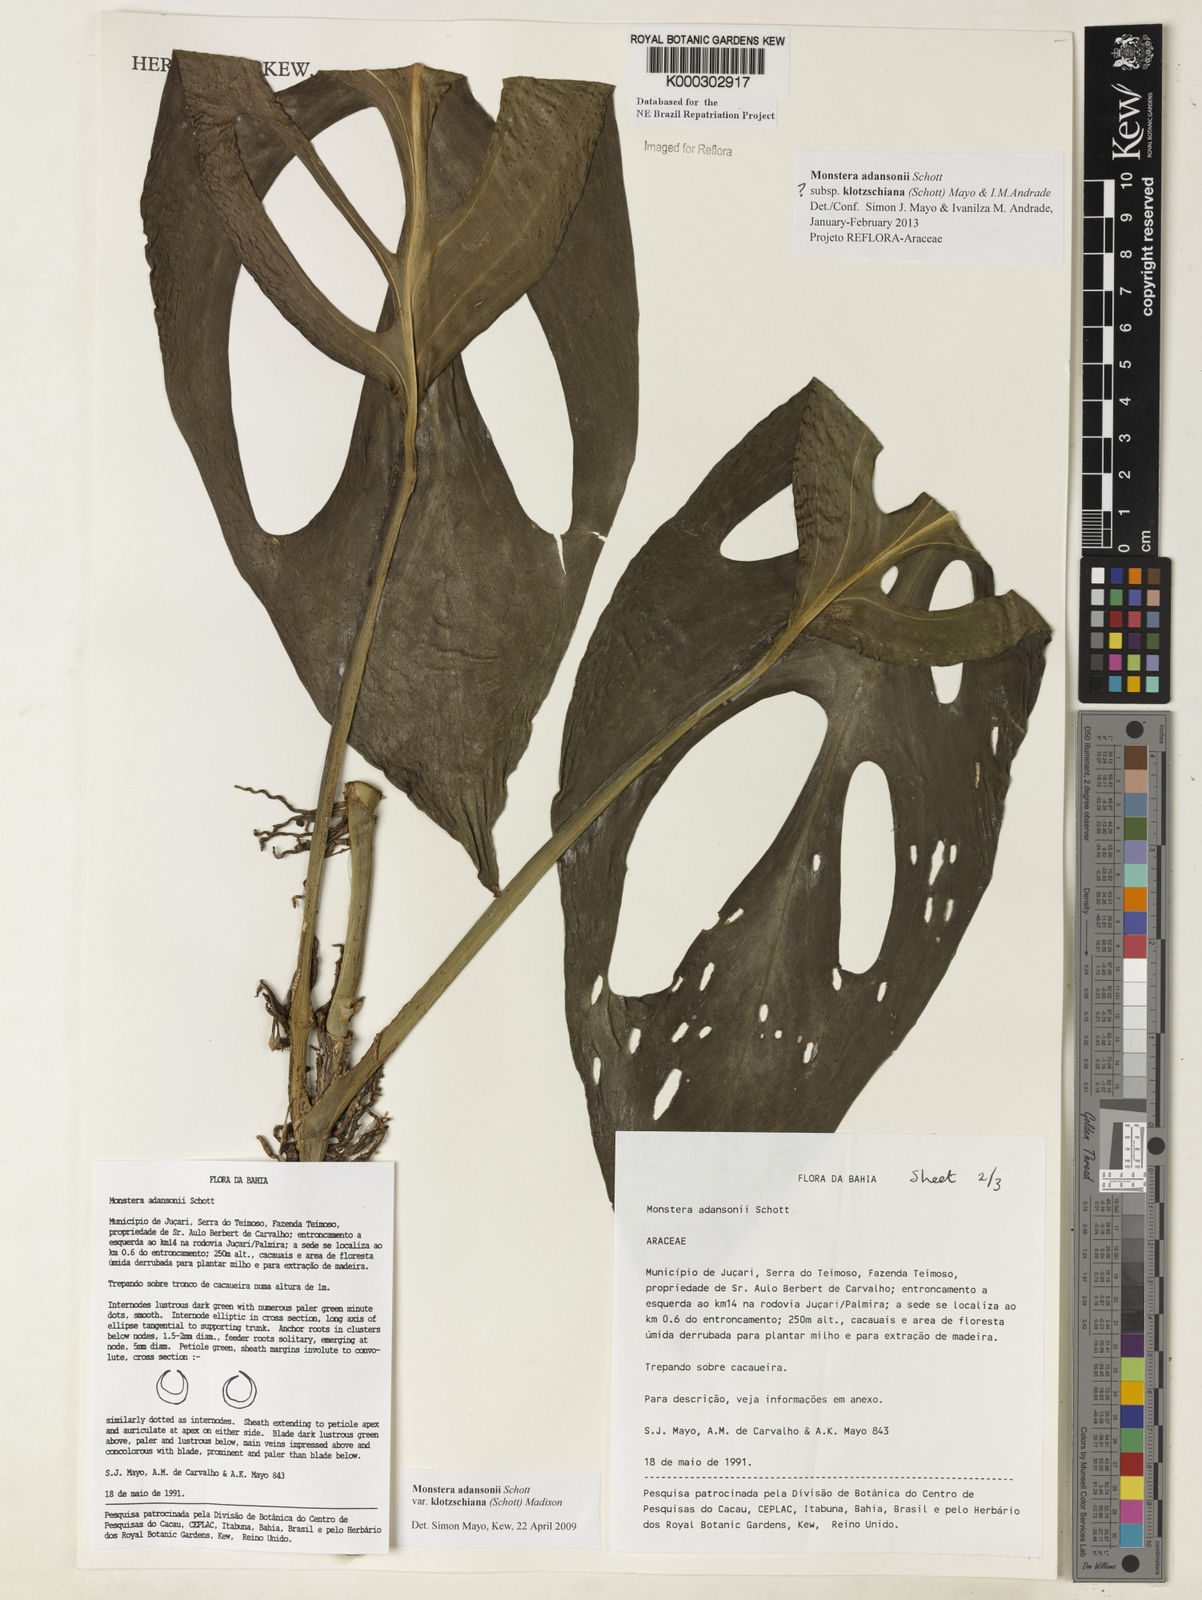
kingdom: Plantae
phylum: Tracheophyta
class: Liliopsida
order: Alismatales
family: Araceae
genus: Monstera
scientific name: Monstera adansonii
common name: Tarovine
